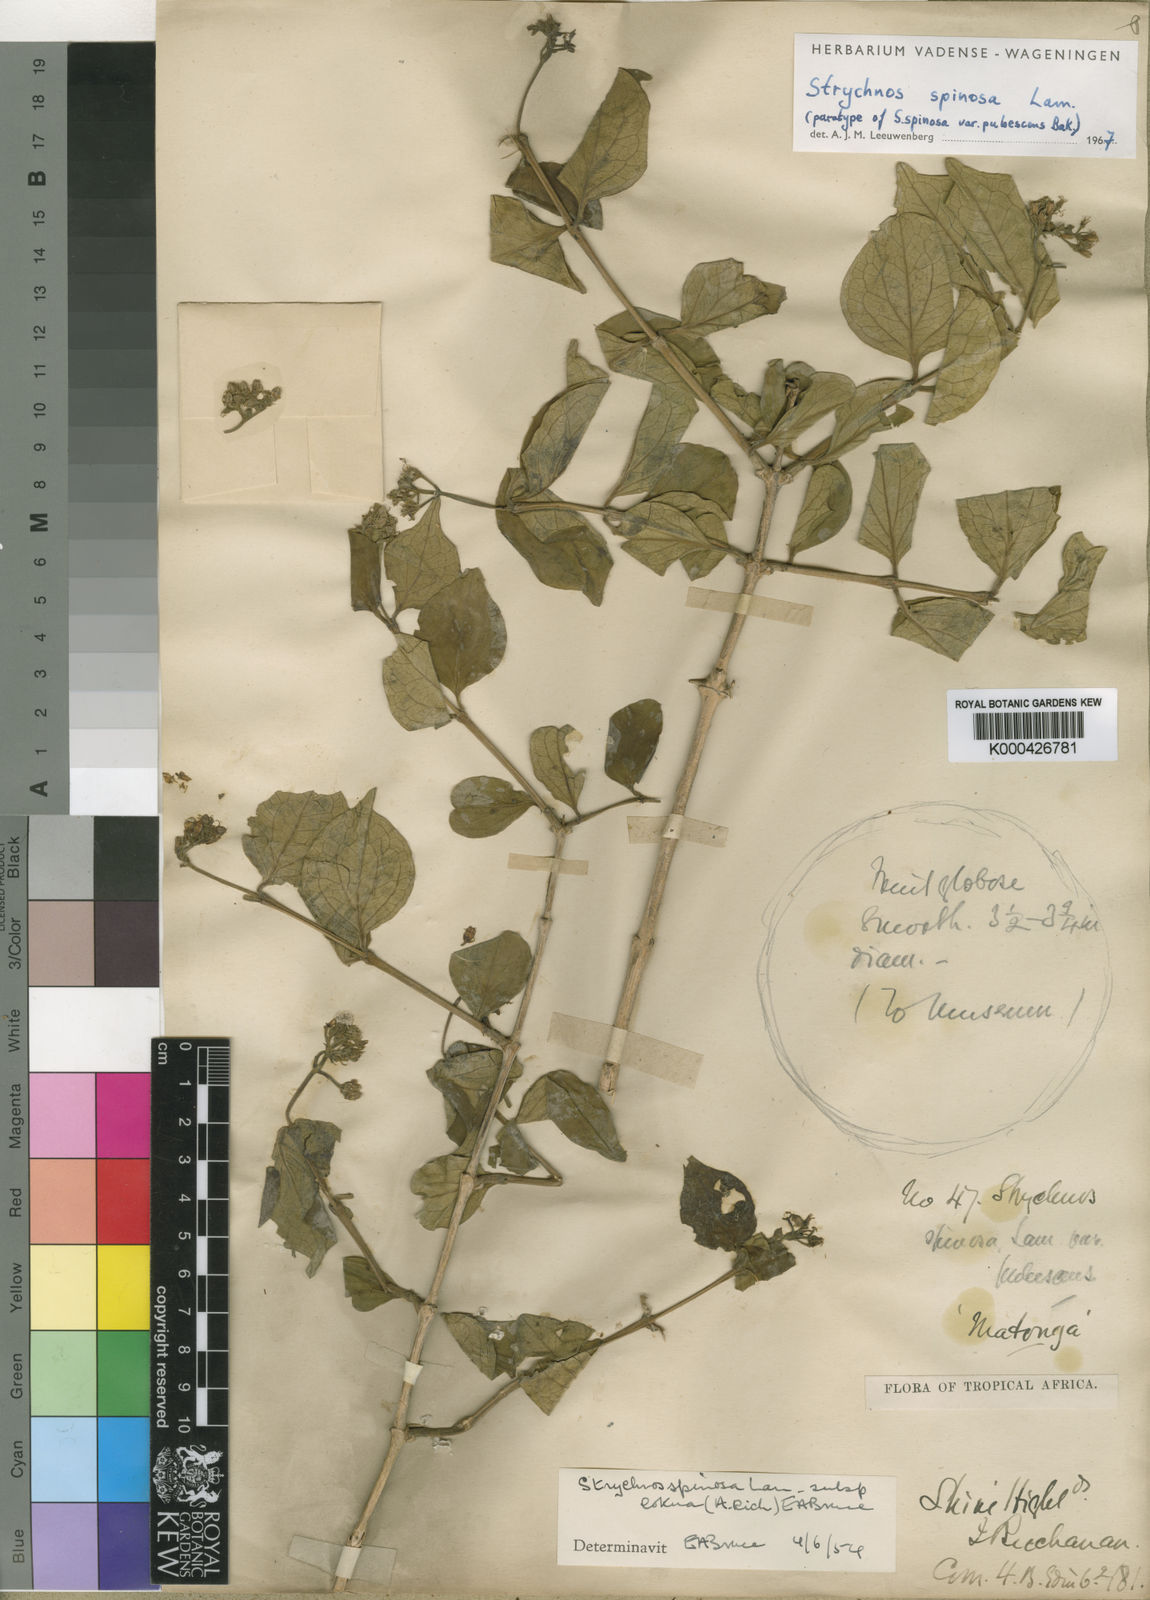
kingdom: Plantae
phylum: Tracheophyta
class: Magnoliopsida
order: Gentianales
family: Loganiaceae
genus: Strychnos
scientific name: Strychnos spinosa
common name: Natal orange
